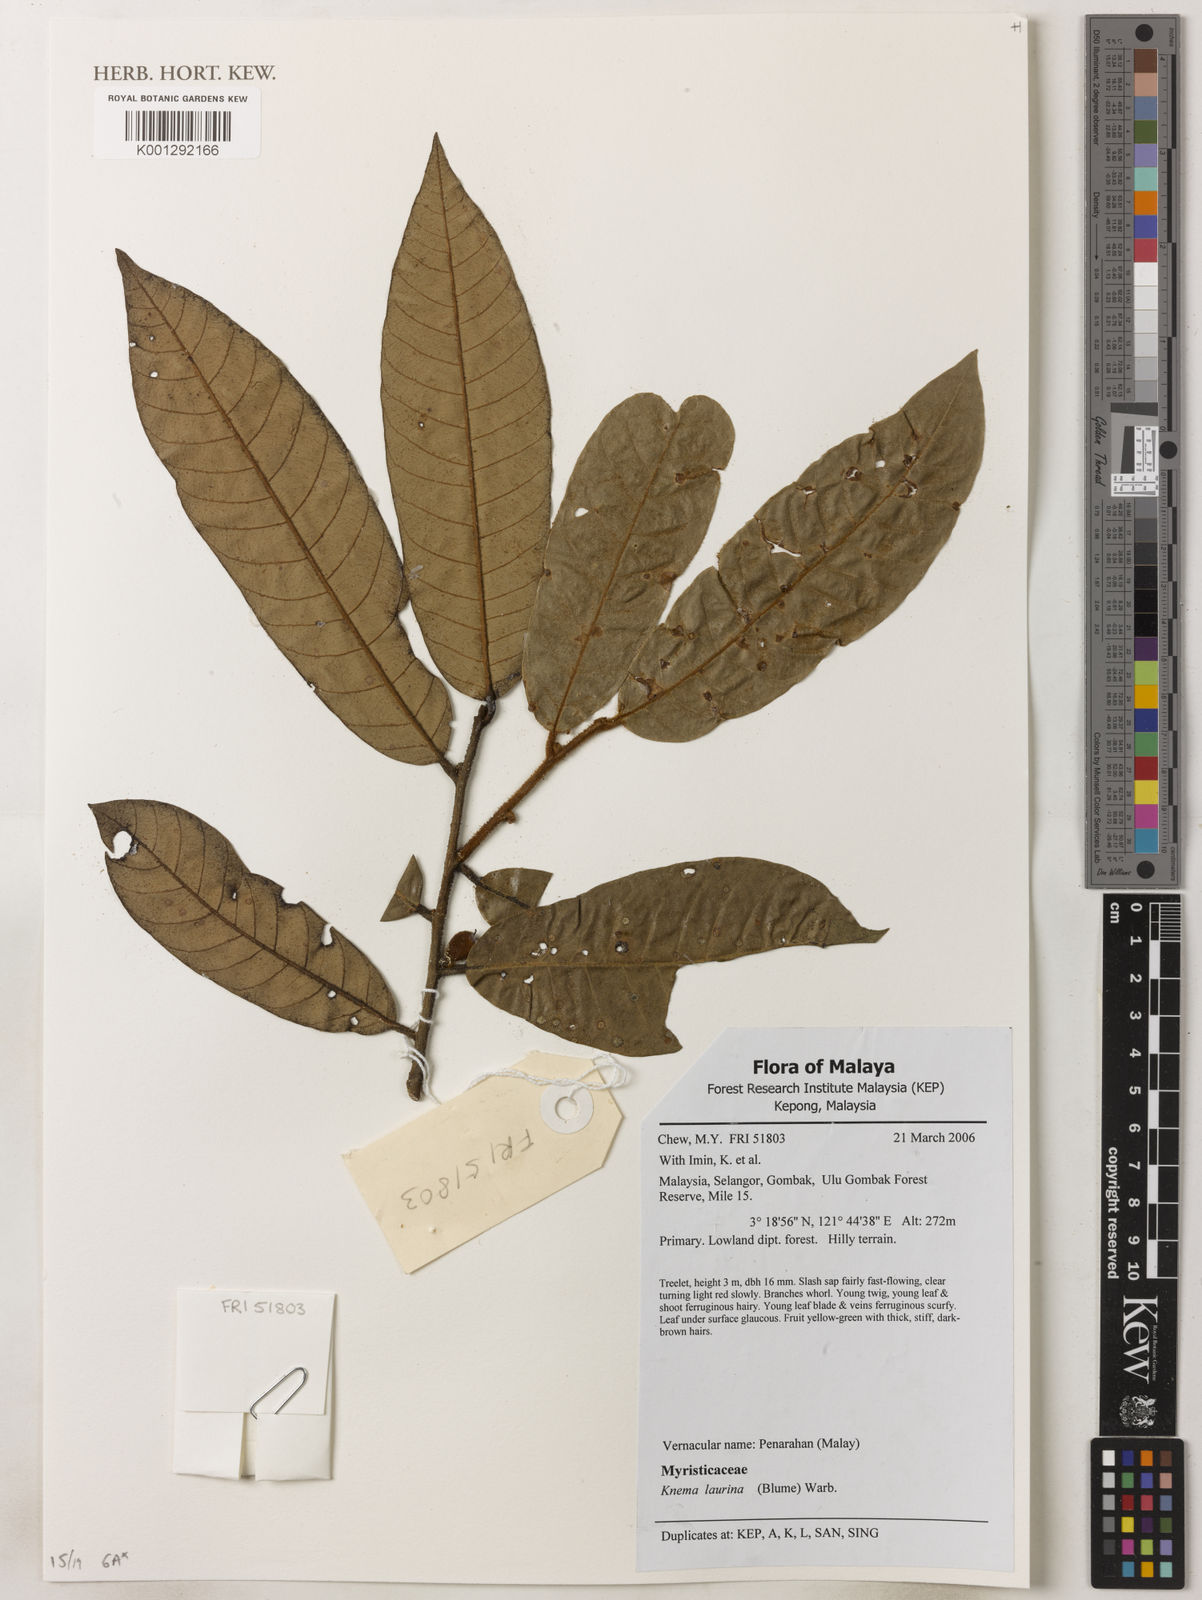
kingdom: Plantae
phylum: Tracheophyta
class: Magnoliopsida
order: Magnoliales
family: Myristicaceae
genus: Knema
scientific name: Knema laurina
